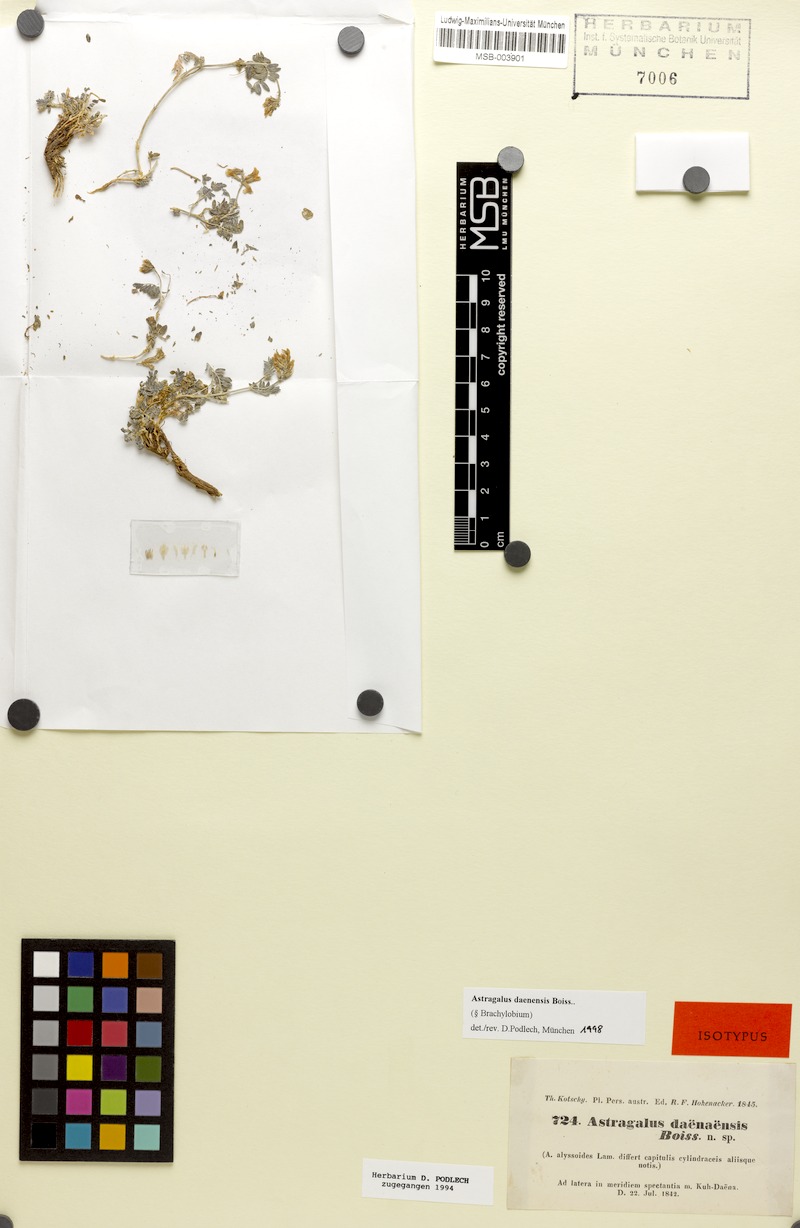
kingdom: Plantae
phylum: Tracheophyta
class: Magnoliopsida
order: Fabales
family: Fabaceae
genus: Astragalus
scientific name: Astragalus daenensis
